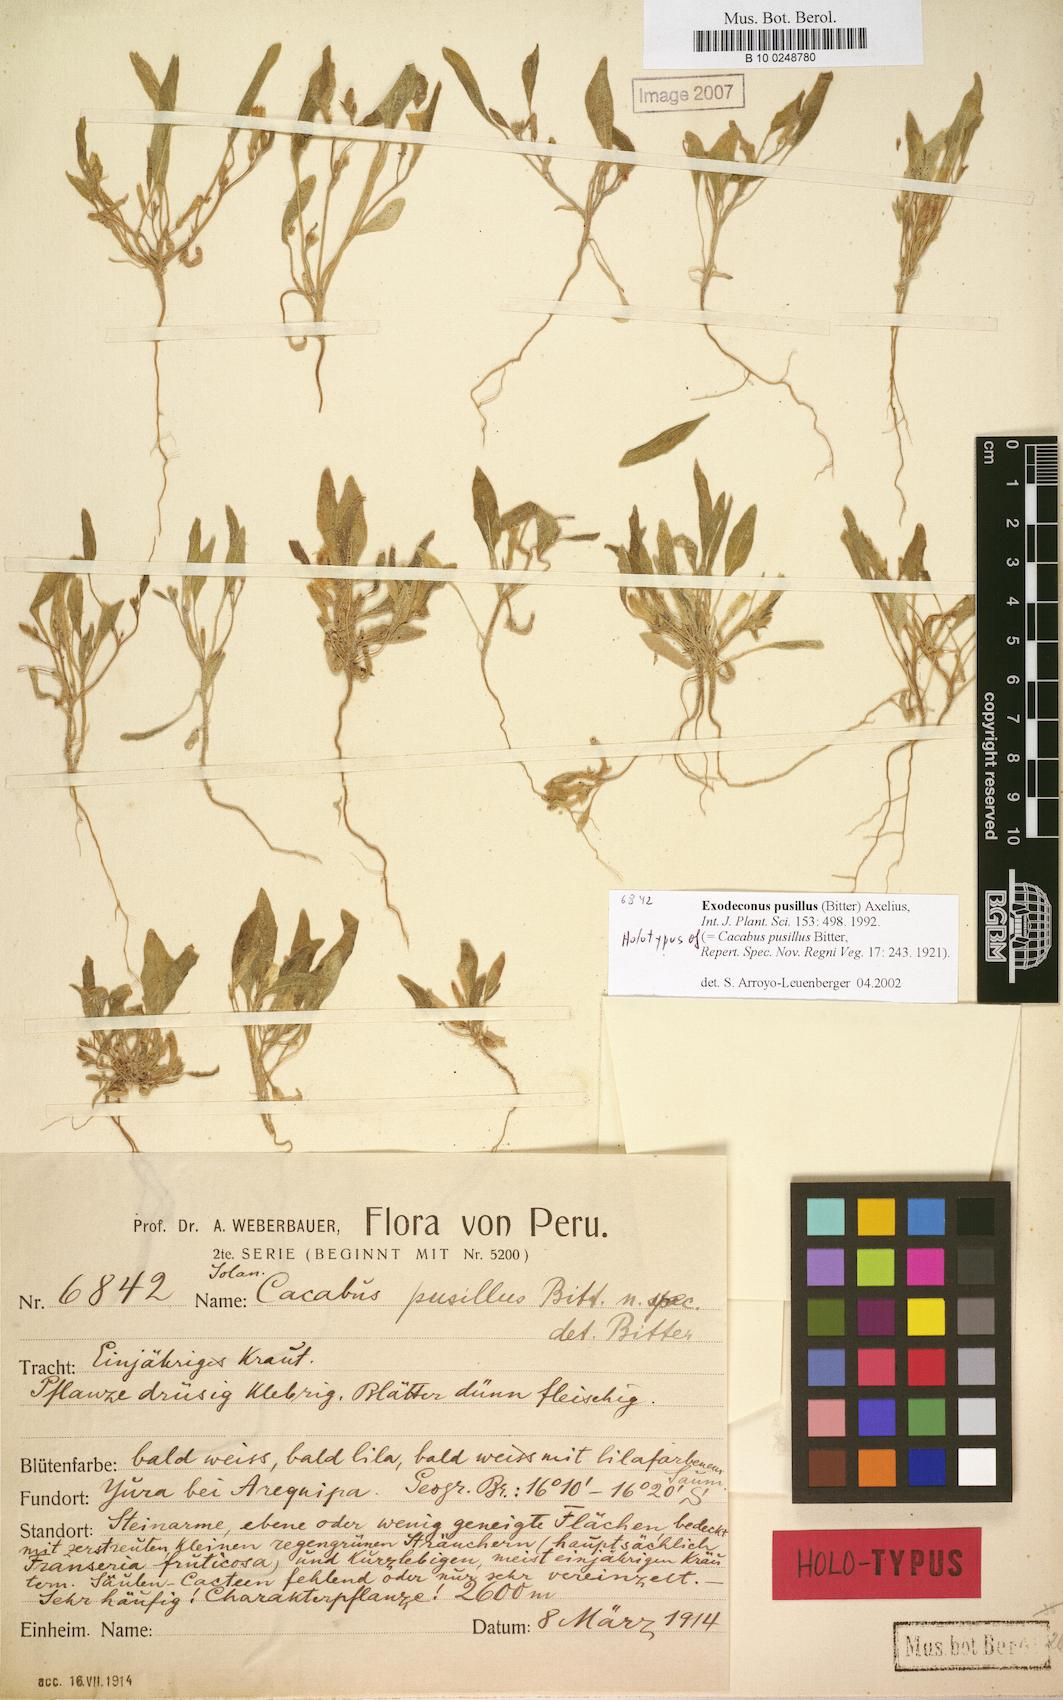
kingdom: Plantae
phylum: Tracheophyta
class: Magnoliopsida
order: Solanales
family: Solanaceae
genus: Exodeconus
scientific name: Exodeconus pusillus
